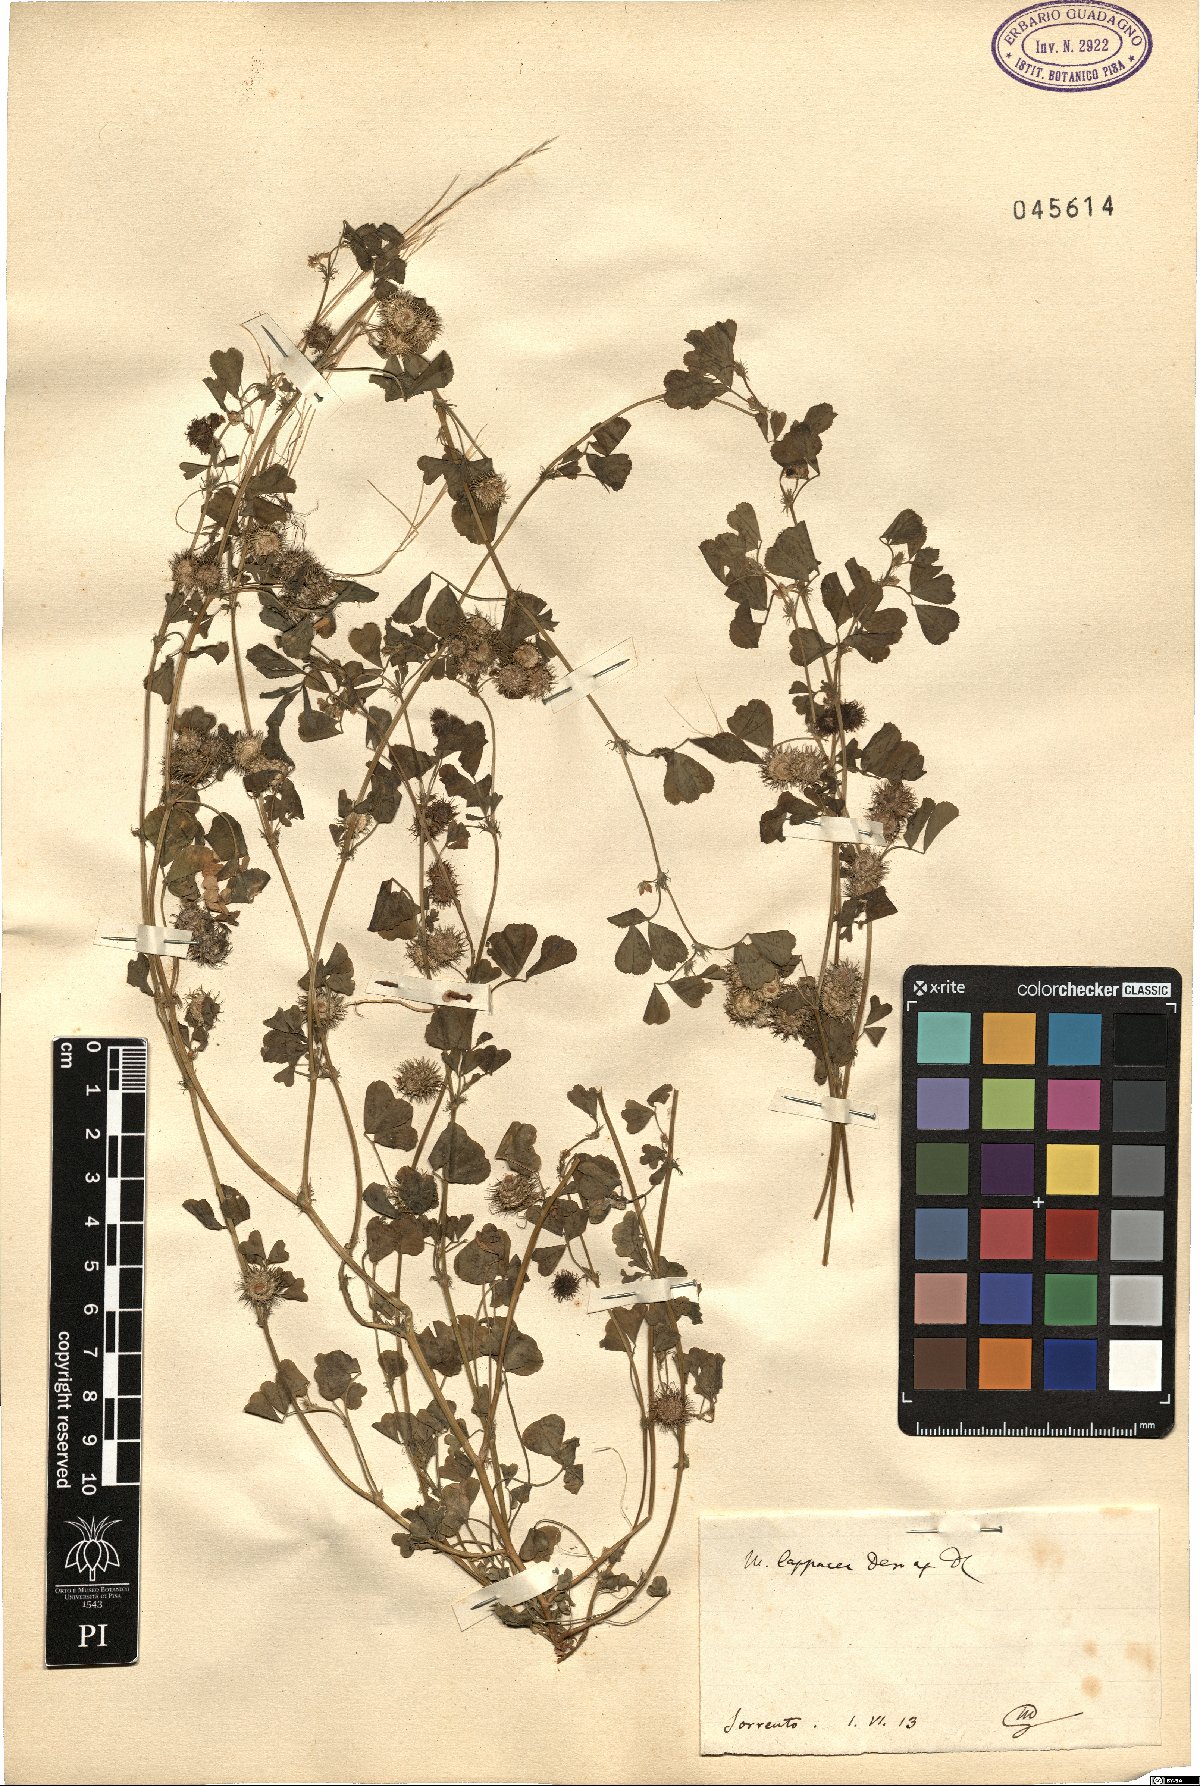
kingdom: Plantae
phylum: Tracheophyta
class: Magnoliopsida
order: Fabales
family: Fabaceae
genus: Medicago
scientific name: Medicago polymorpha
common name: Burclover
